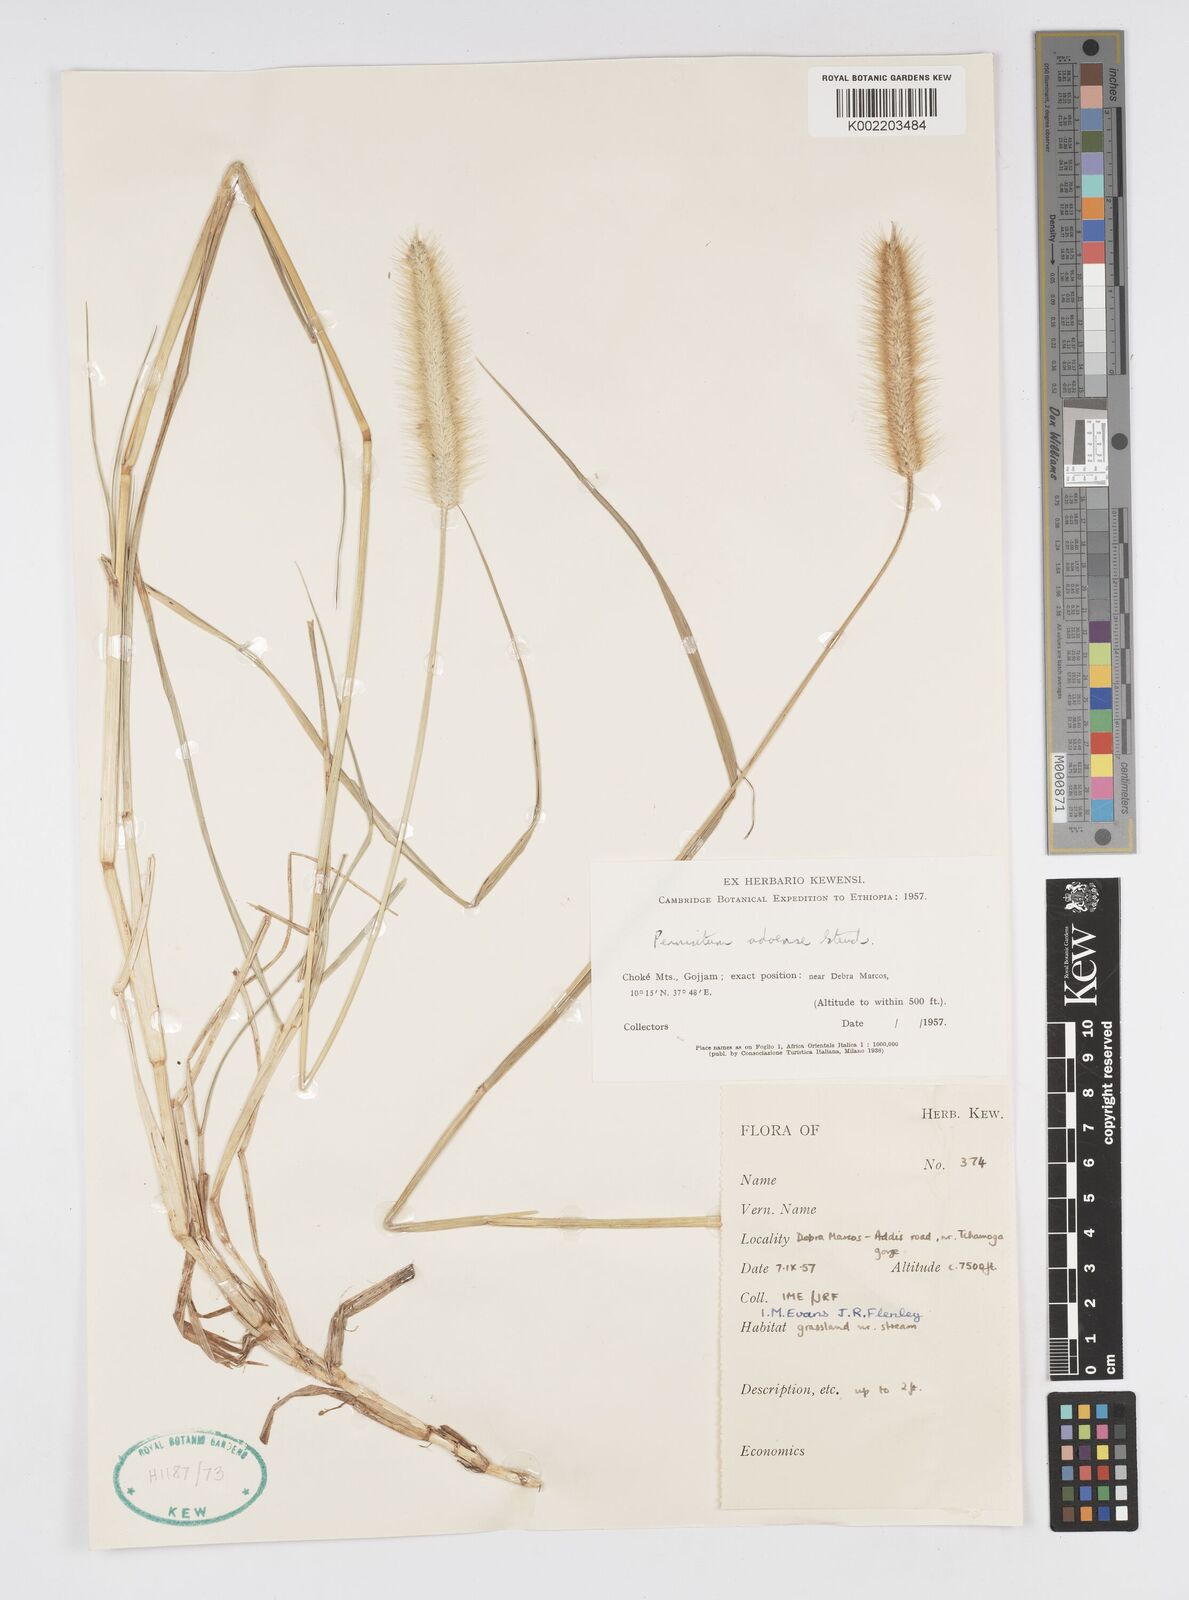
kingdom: Plantae
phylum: Tracheophyta
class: Liliopsida
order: Poales
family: Poaceae
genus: Cenchrus
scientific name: Cenchrus geniculatus
